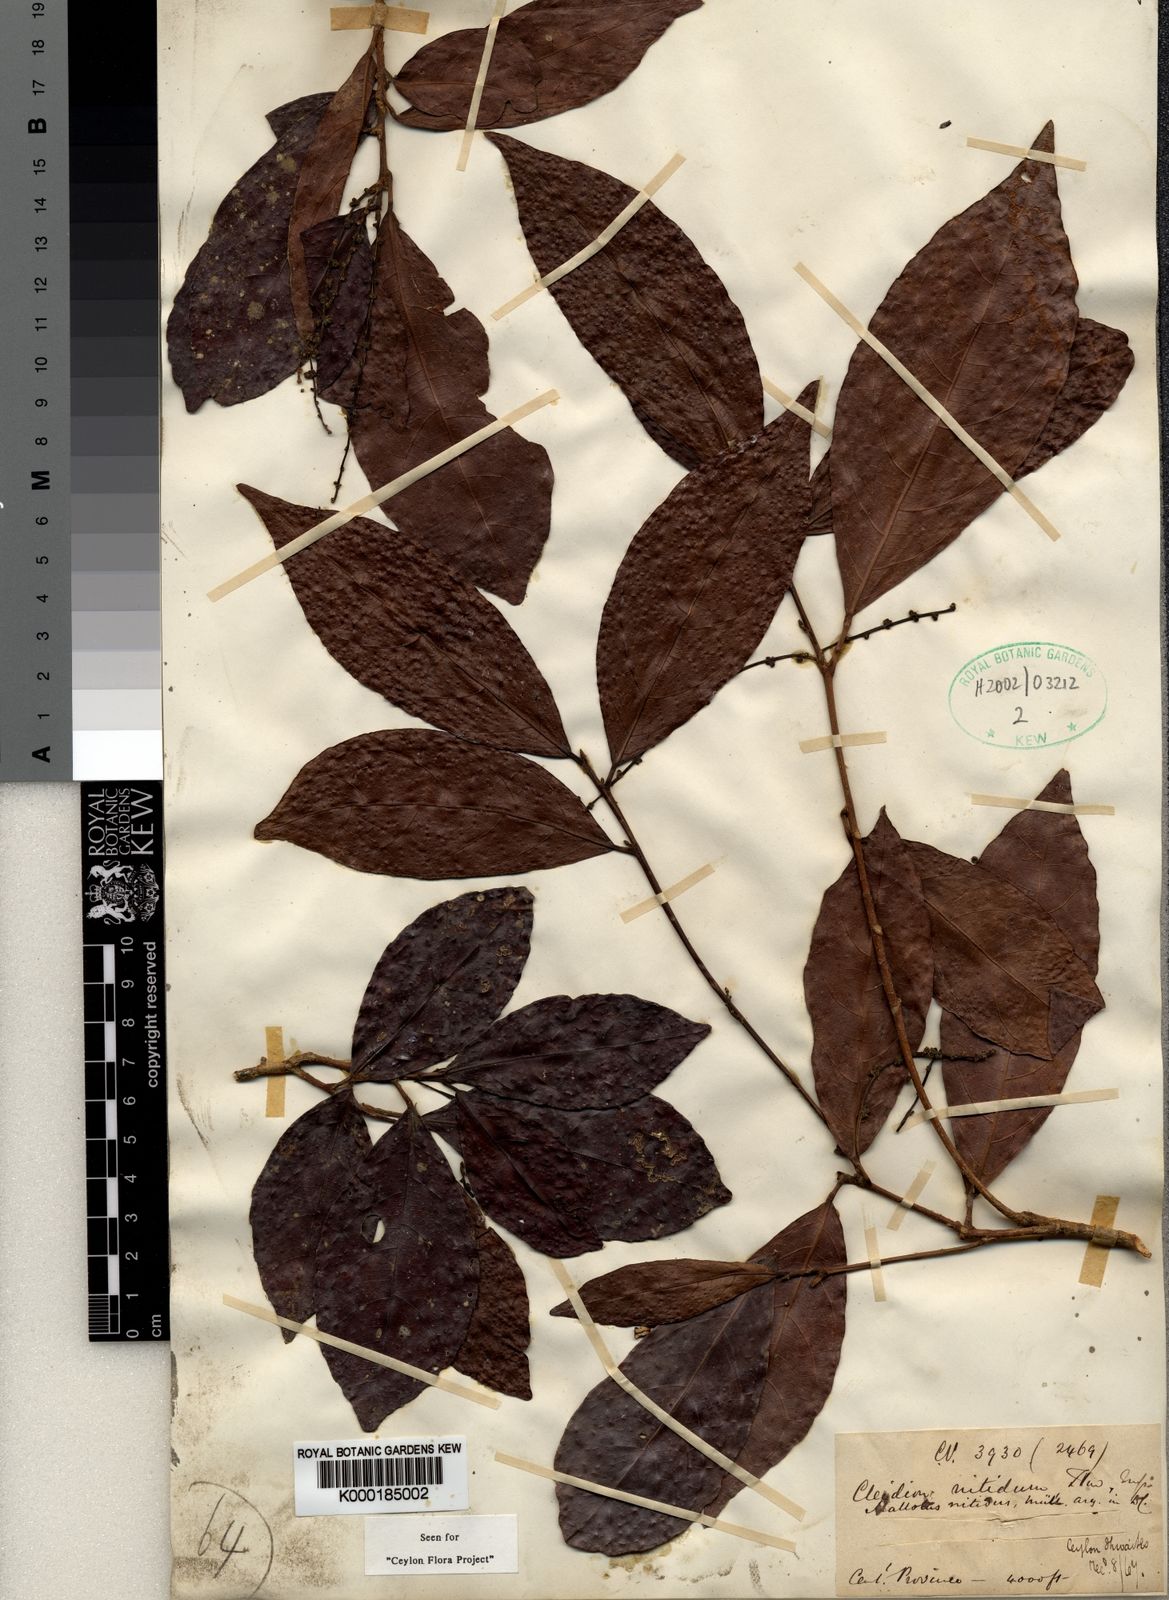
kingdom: Plantae
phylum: Tracheophyta
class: Magnoliopsida
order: Malpighiales
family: Euphorbiaceae
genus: Cleidion
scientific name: Cleidion nitidum
